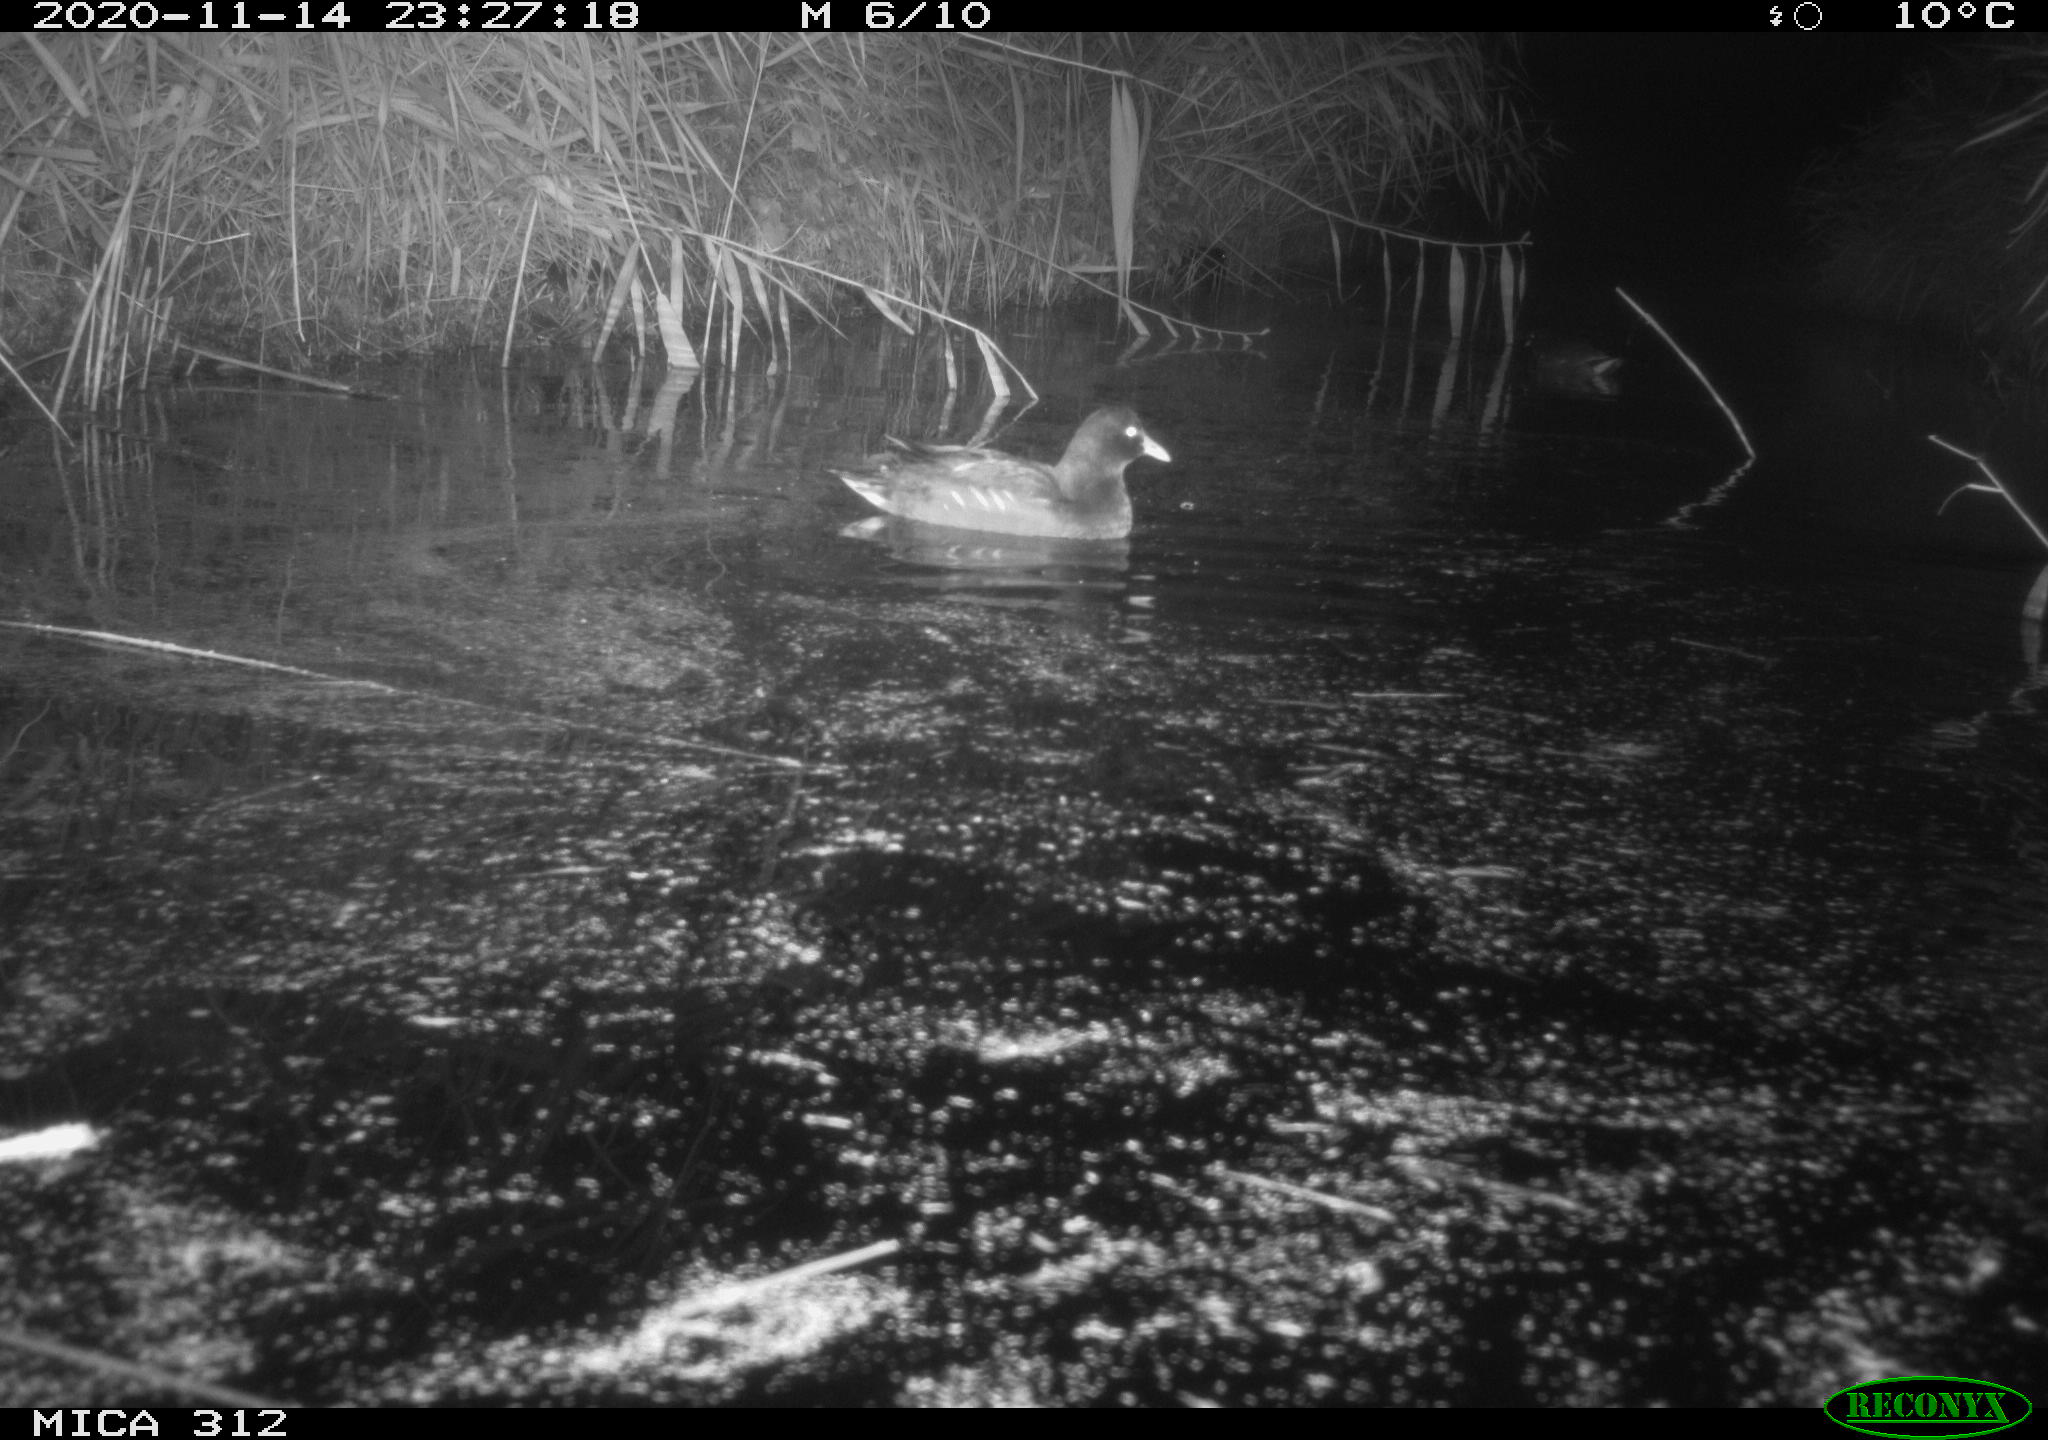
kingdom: Animalia
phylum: Chordata
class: Mammalia
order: Rodentia
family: Muridae
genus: Rattus
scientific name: Rattus norvegicus
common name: Brown rat
